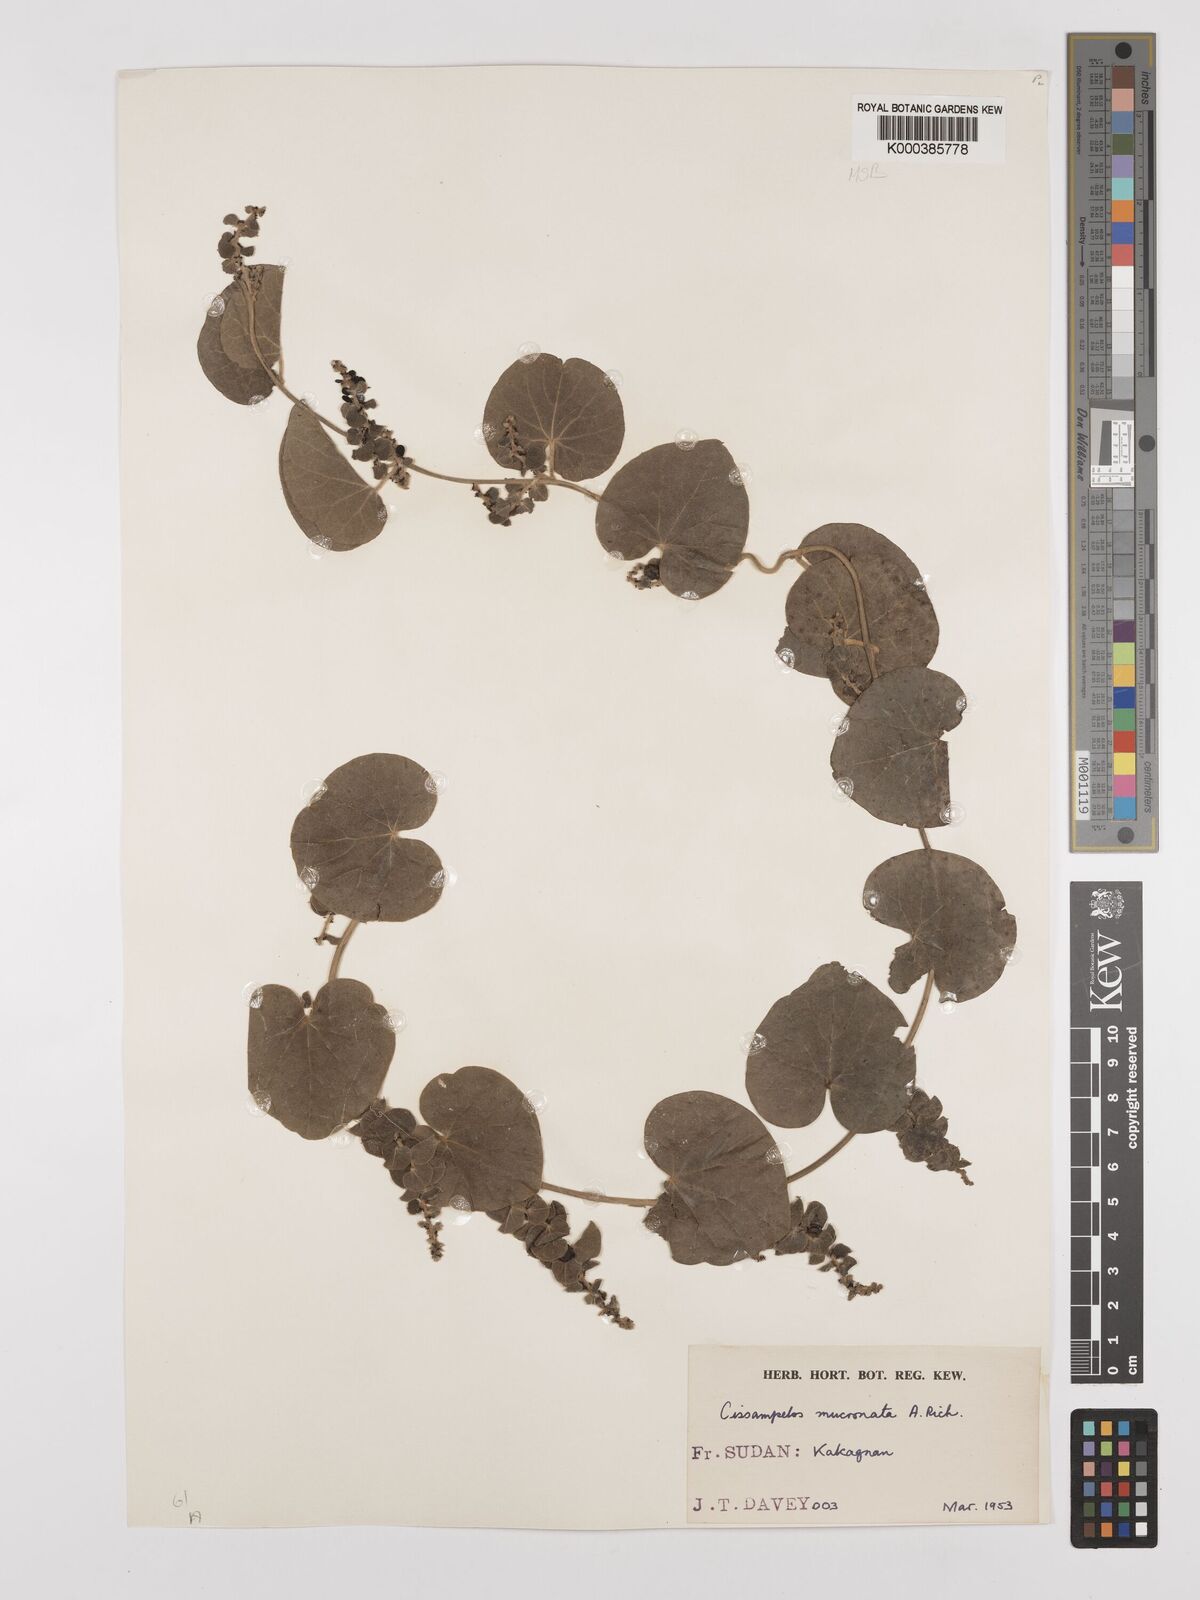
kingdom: Plantae
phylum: Tracheophyta
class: Magnoliopsida
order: Ranunculales
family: Menispermaceae
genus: Cissampelos
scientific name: Cissampelos mucronata
